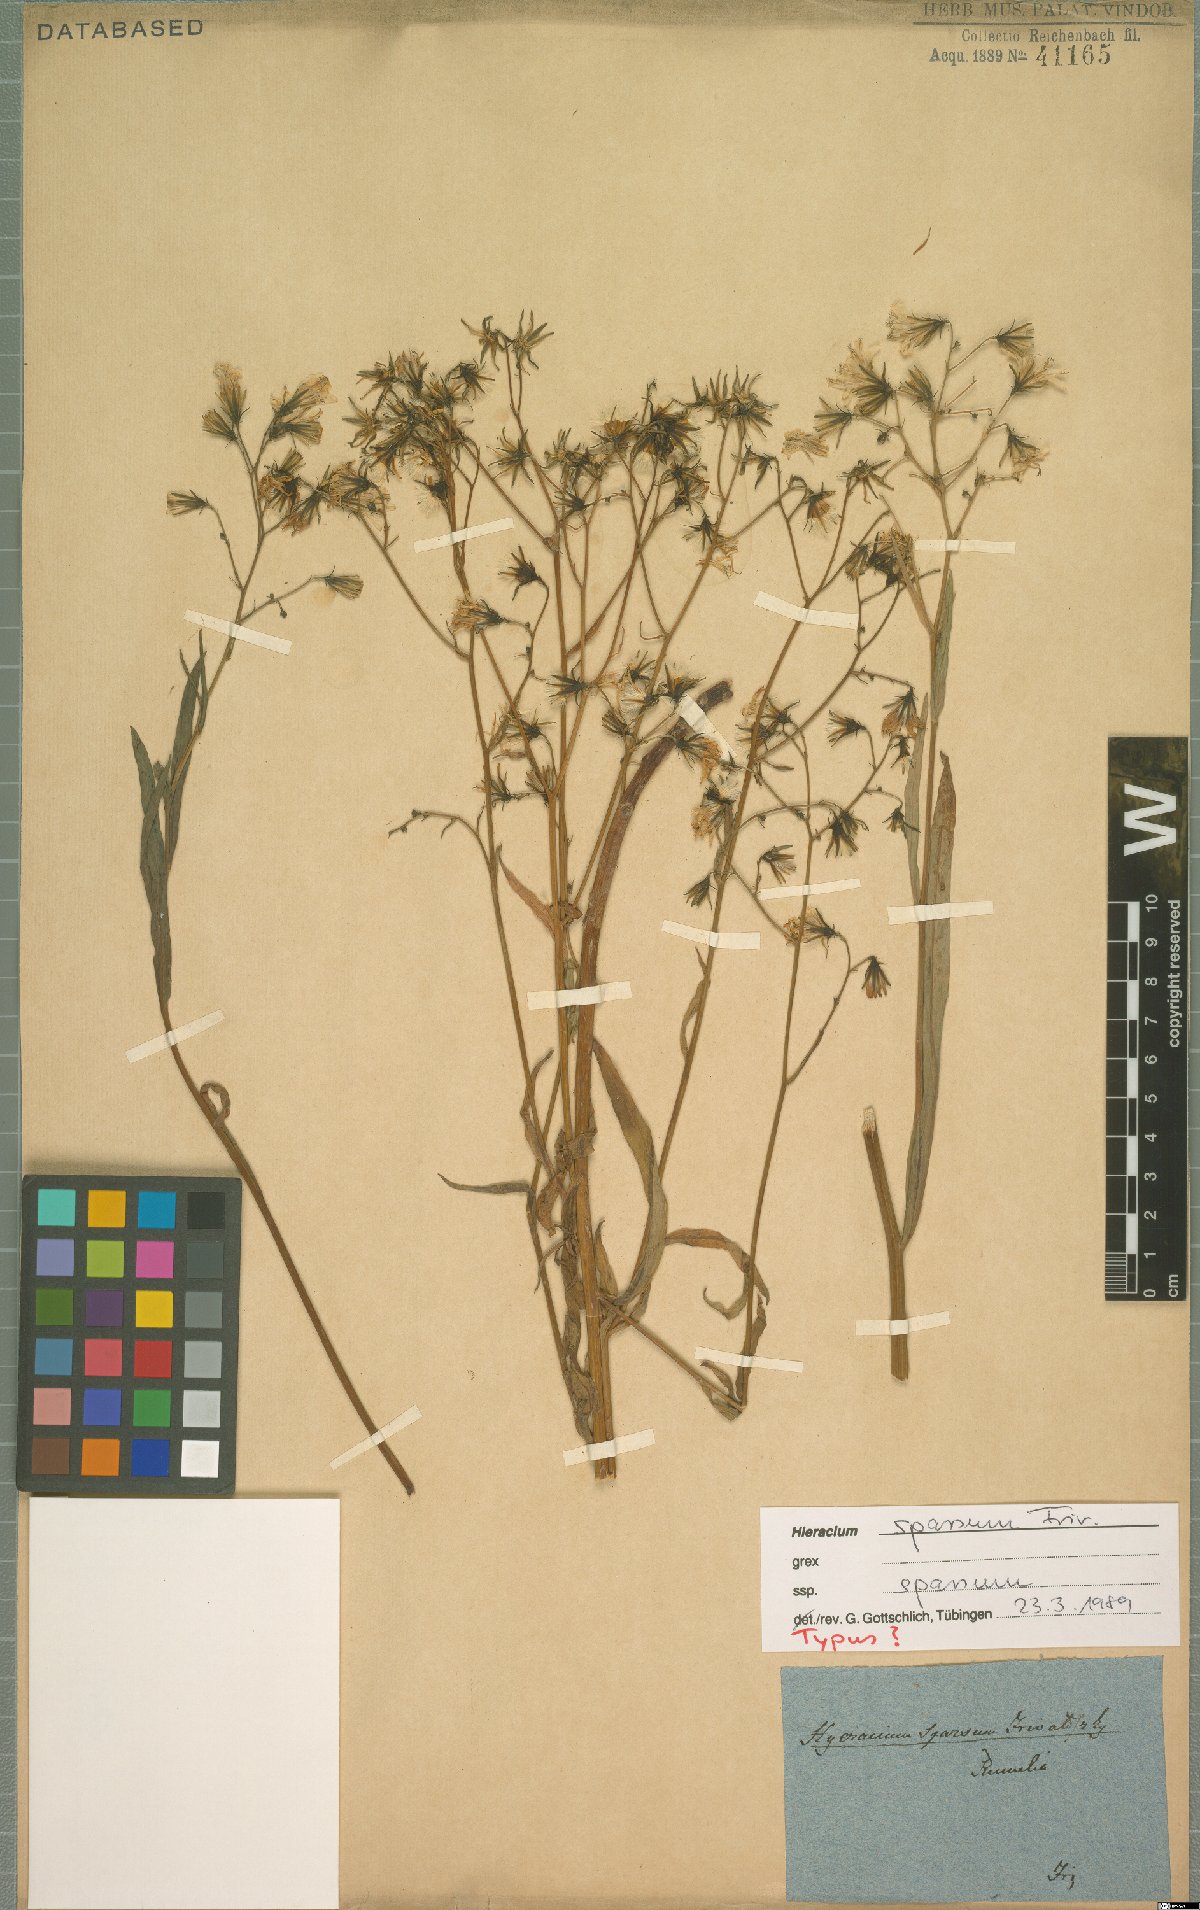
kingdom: Plantae
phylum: Tracheophyta
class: Magnoliopsida
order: Asterales
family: Asteraceae
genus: Hieracium
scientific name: Hieracium sparsum
